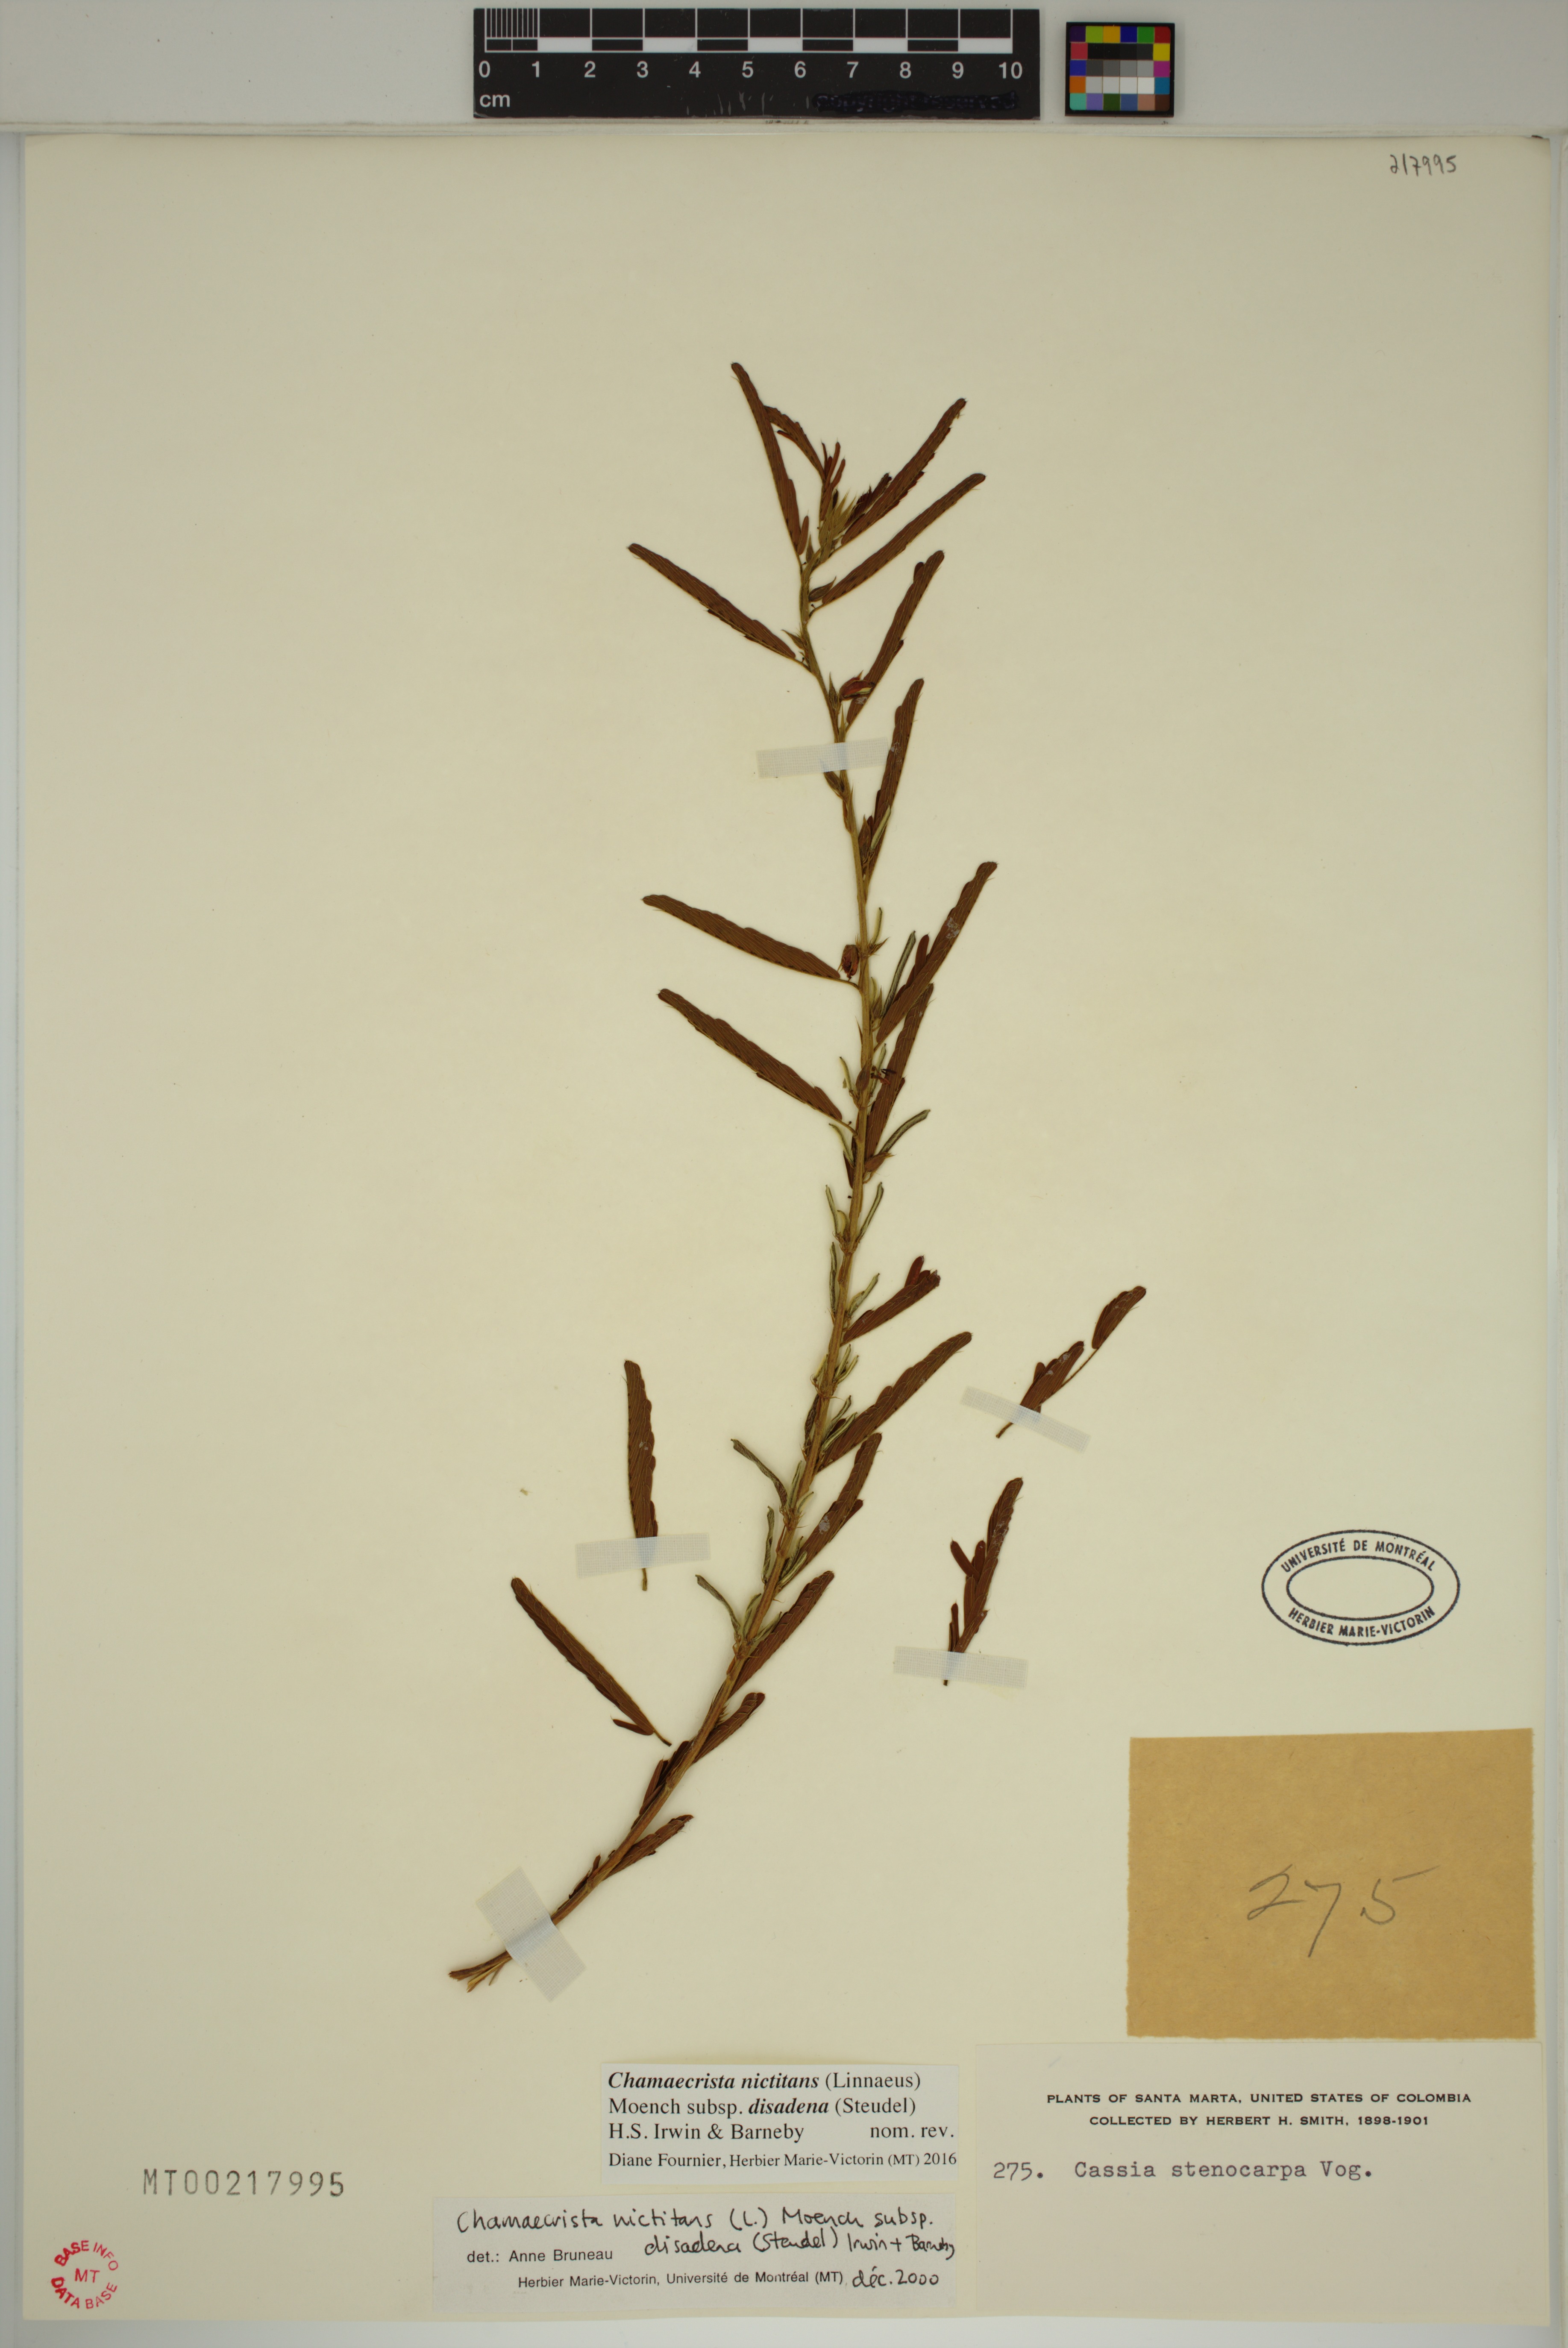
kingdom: Plantae
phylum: Tracheophyta
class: Magnoliopsida
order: Fabales
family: Fabaceae
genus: Chamaecrista
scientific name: Chamaecrista nictitans
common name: Sensitive cassia
